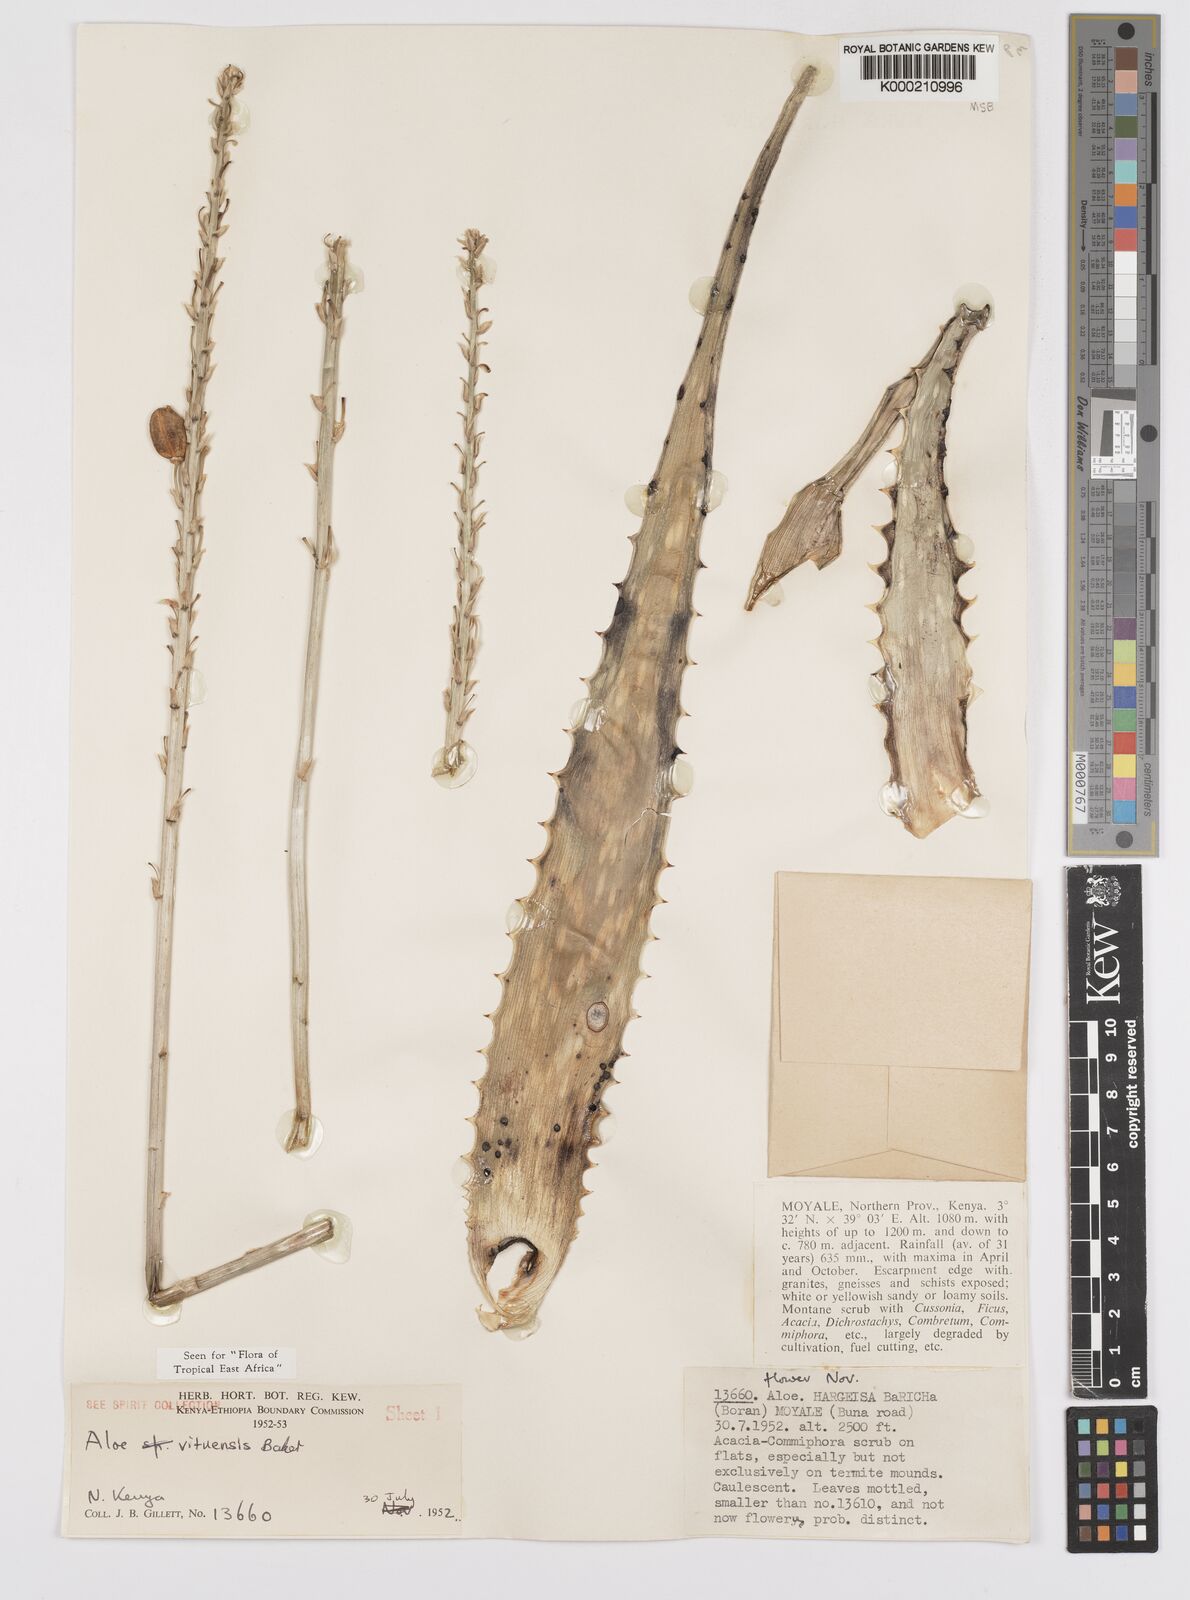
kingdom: Plantae
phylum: Tracheophyta
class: Liliopsida
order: Asparagales
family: Asphodelaceae
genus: Aloe
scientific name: Aloe vituensis
